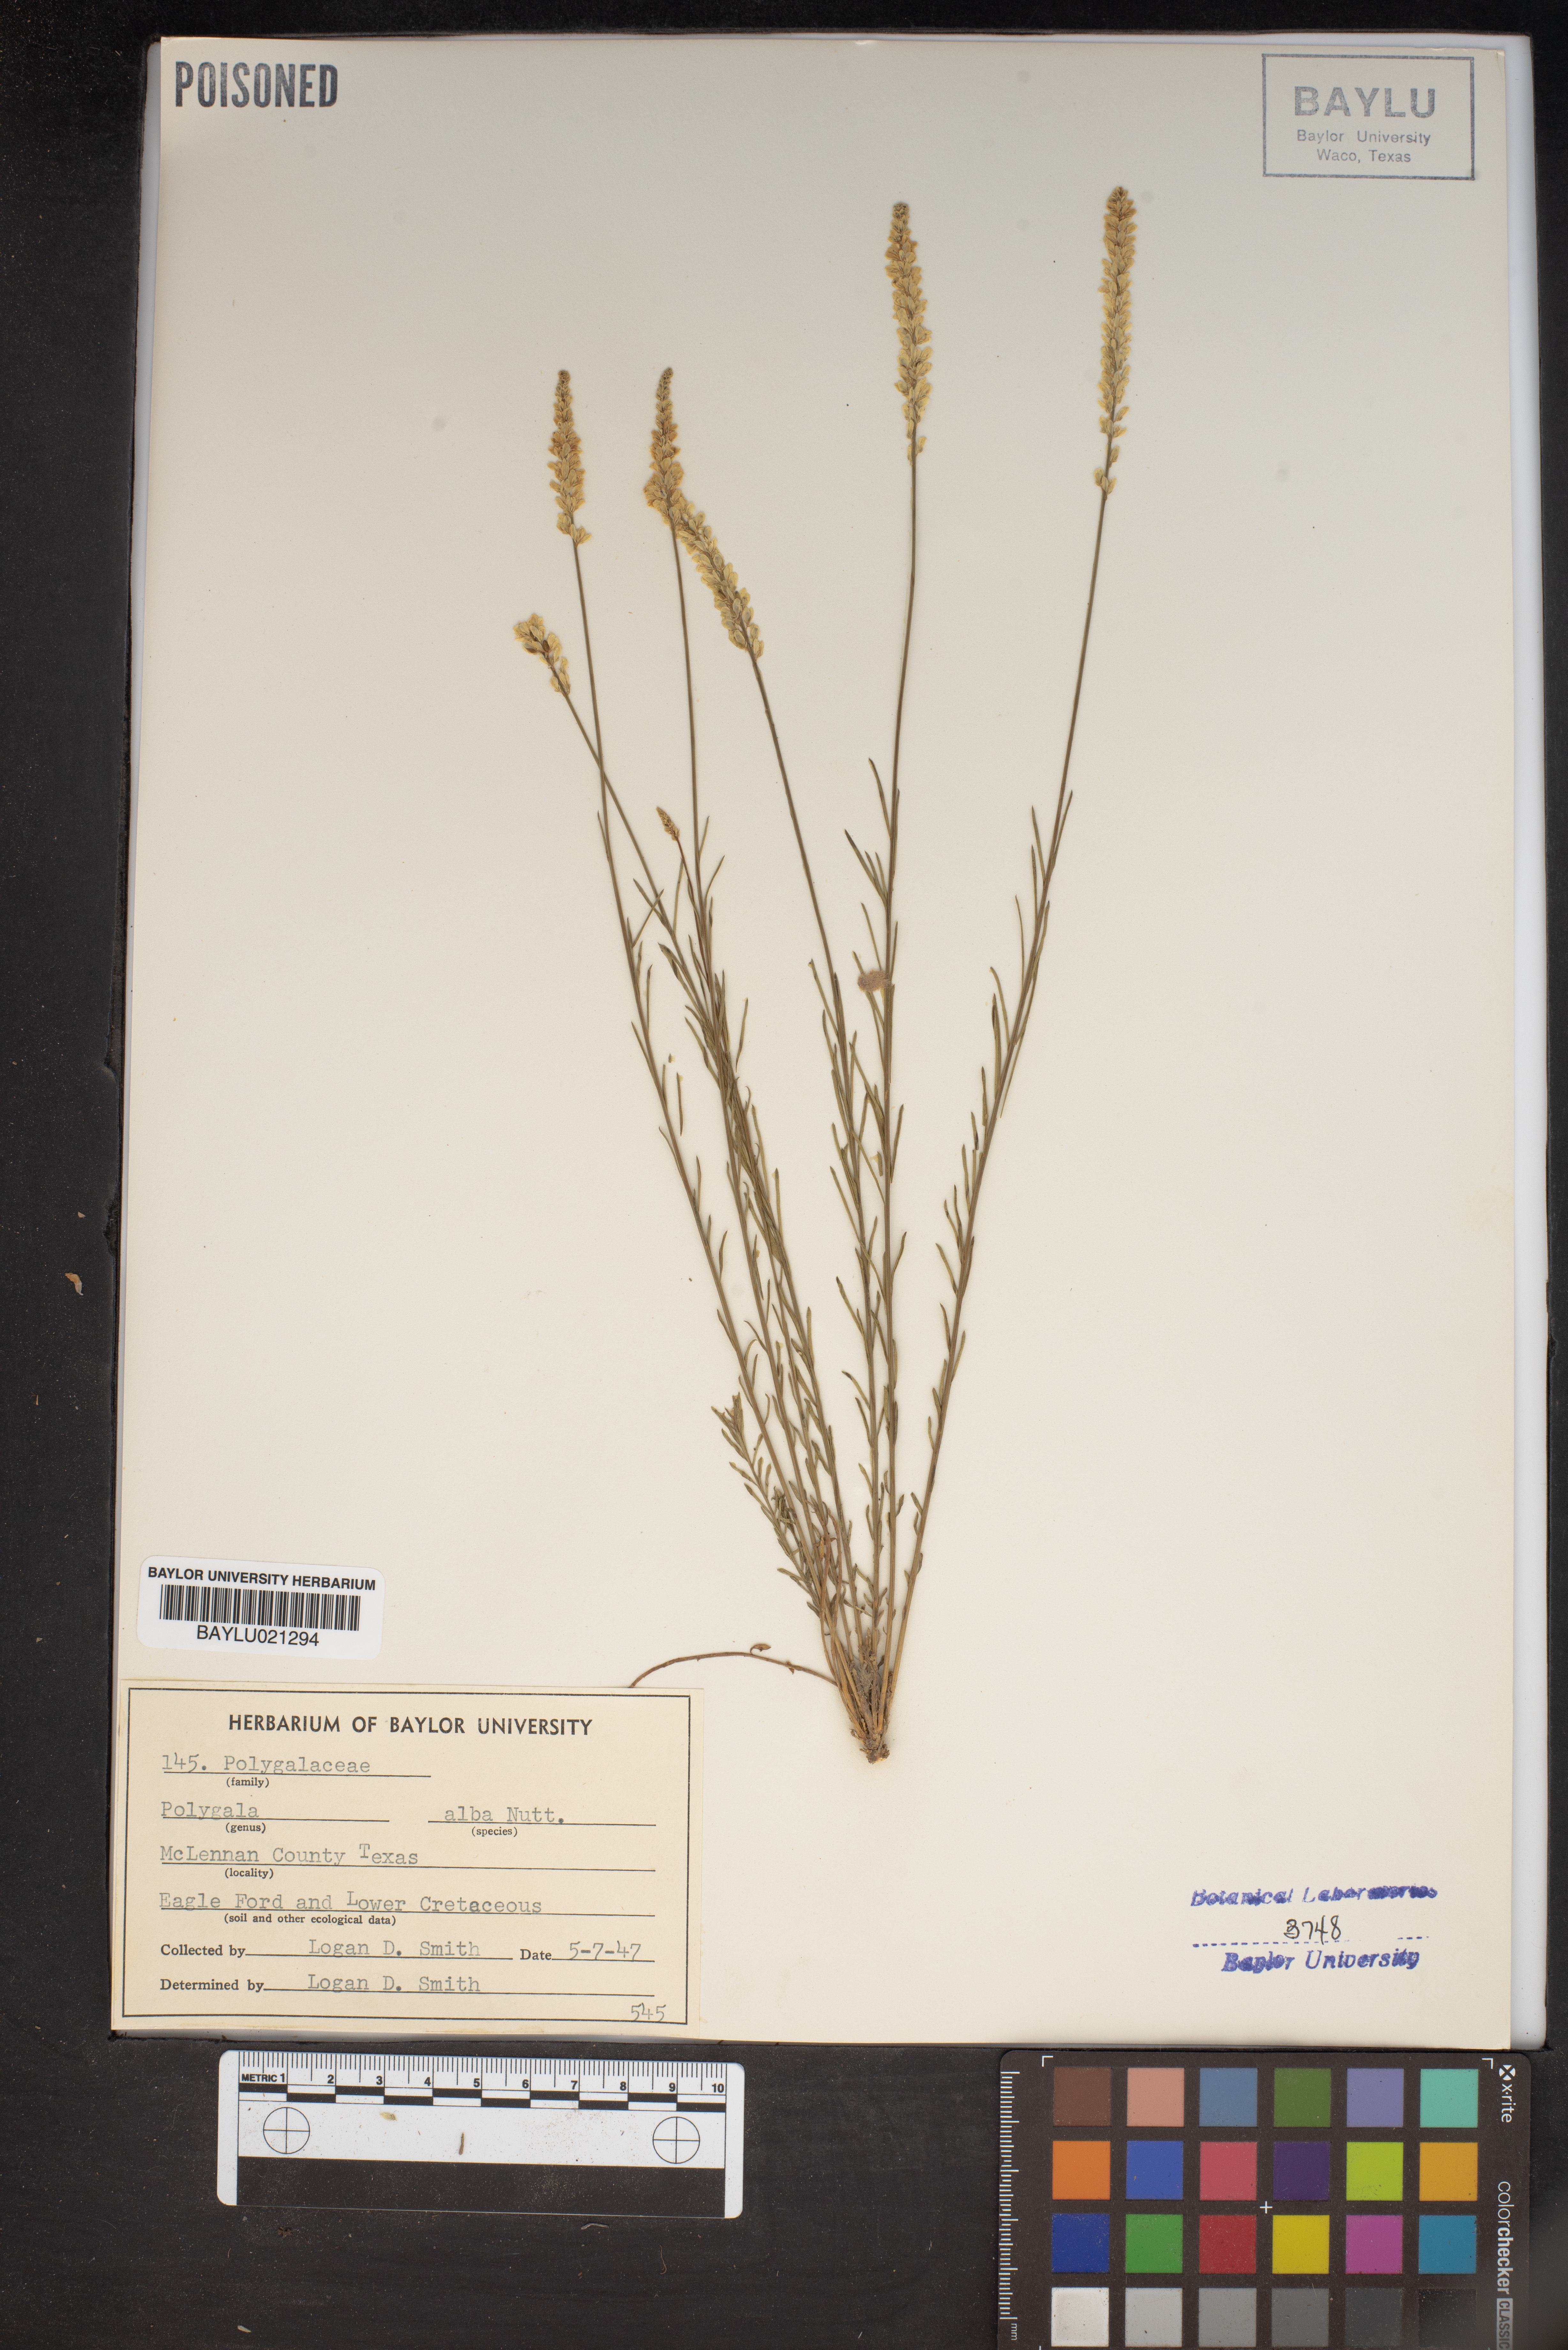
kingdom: Plantae
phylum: Tracheophyta
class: Magnoliopsida
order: Fabales
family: Polygalaceae
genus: Polygala
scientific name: Polygala alba
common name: White milkwort
